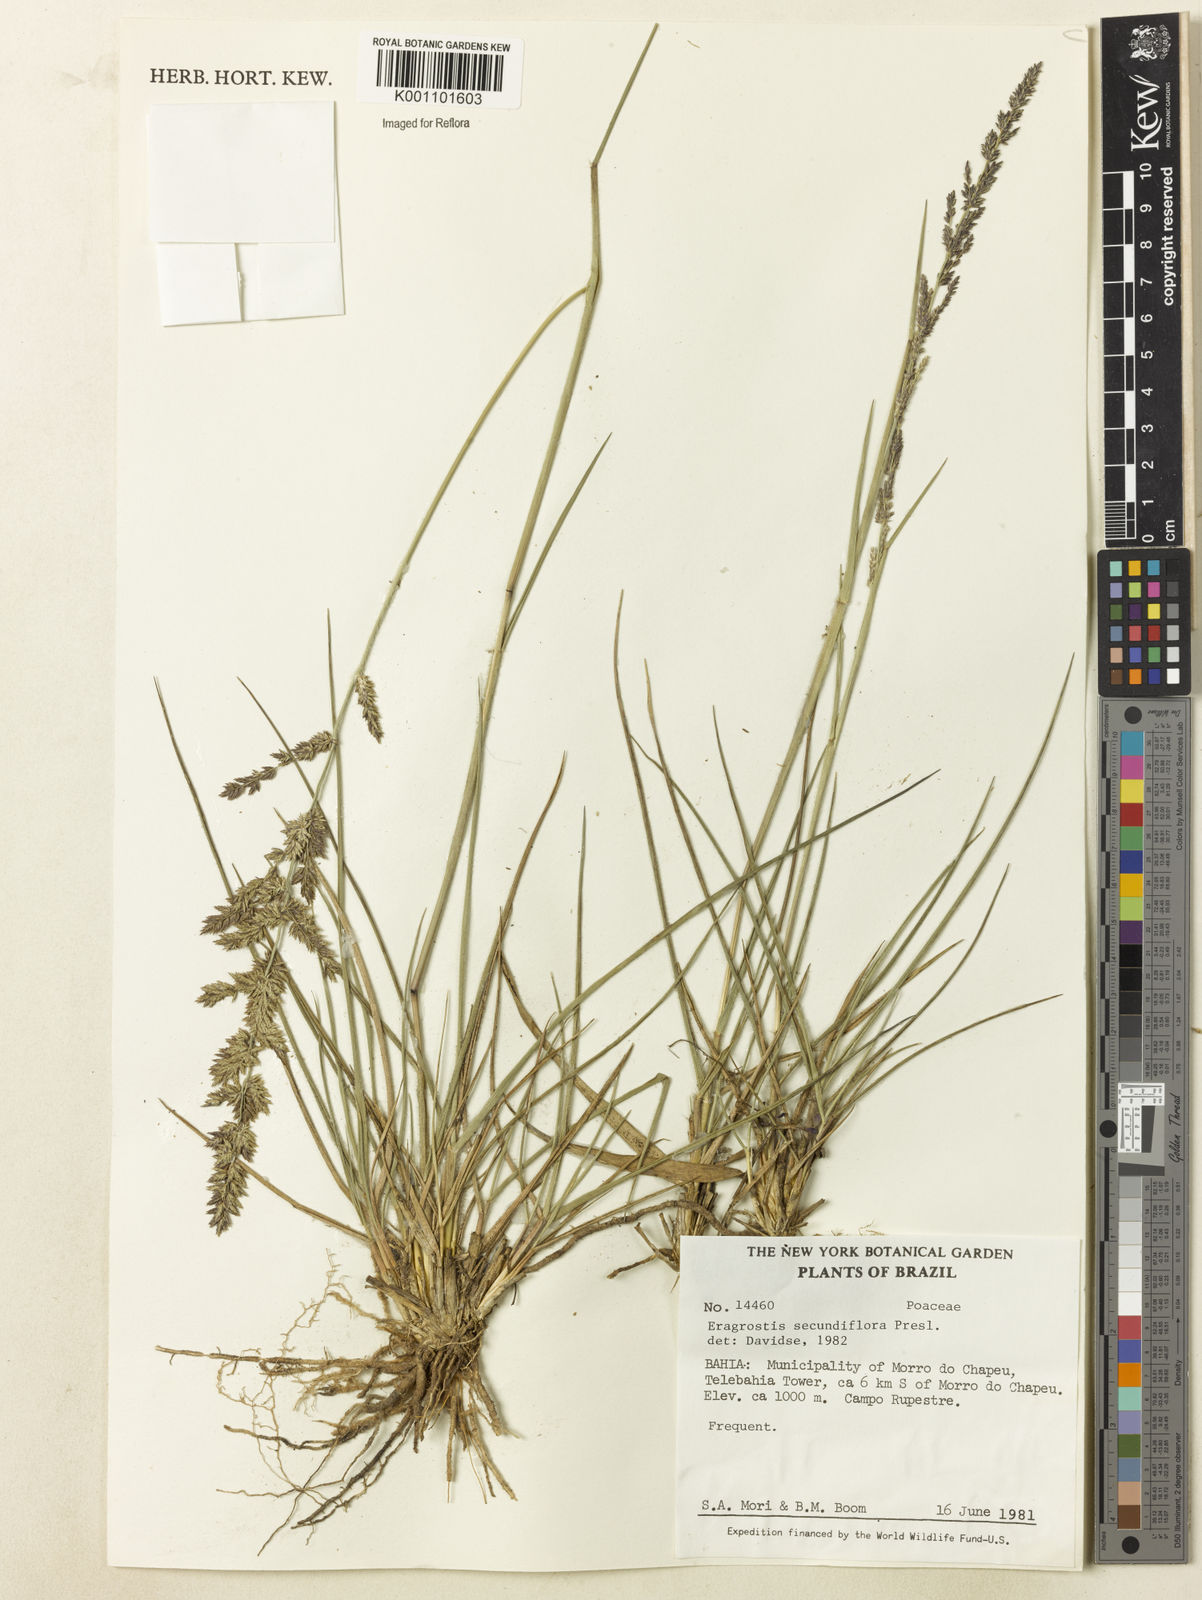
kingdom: Plantae
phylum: Tracheophyta
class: Liliopsida
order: Poales
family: Poaceae
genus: Eragrostis
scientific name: Eragrostis petrensis
